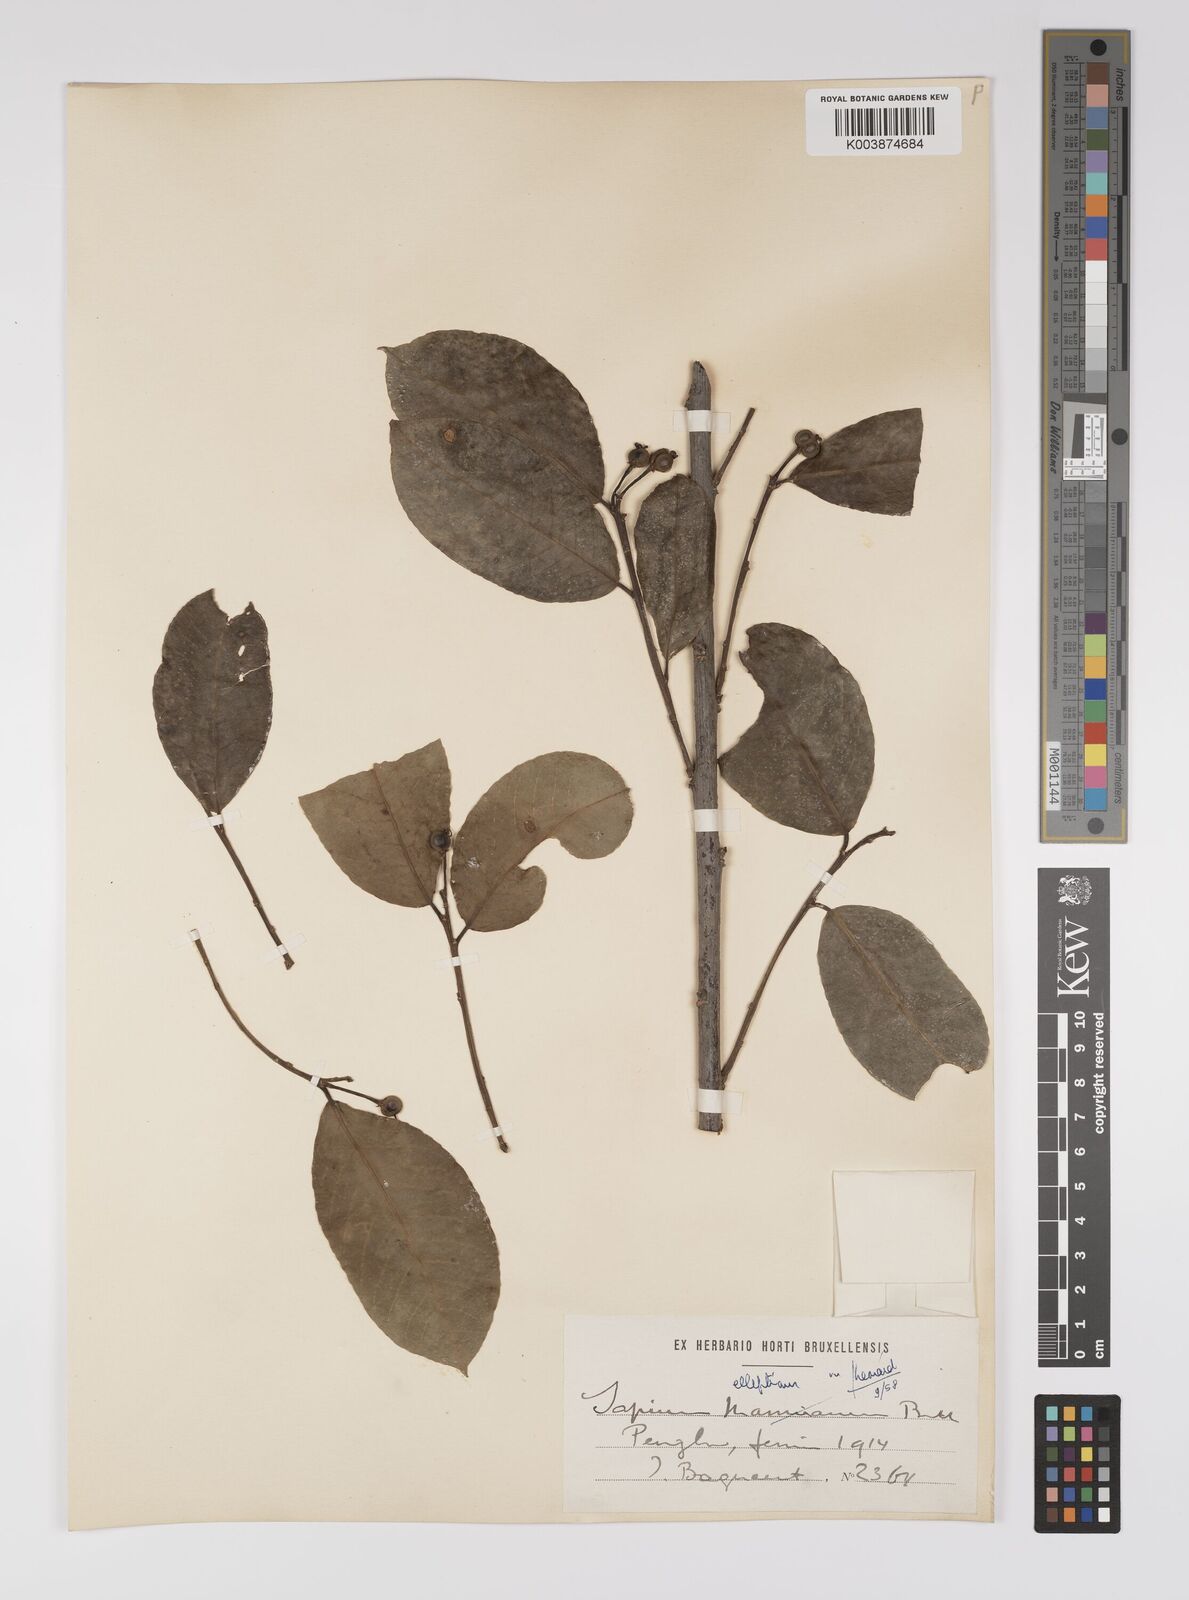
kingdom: Plantae
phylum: Tracheophyta
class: Magnoliopsida
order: Malpighiales
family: Euphorbiaceae
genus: Shirakiopsis
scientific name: Shirakiopsis elliptica
